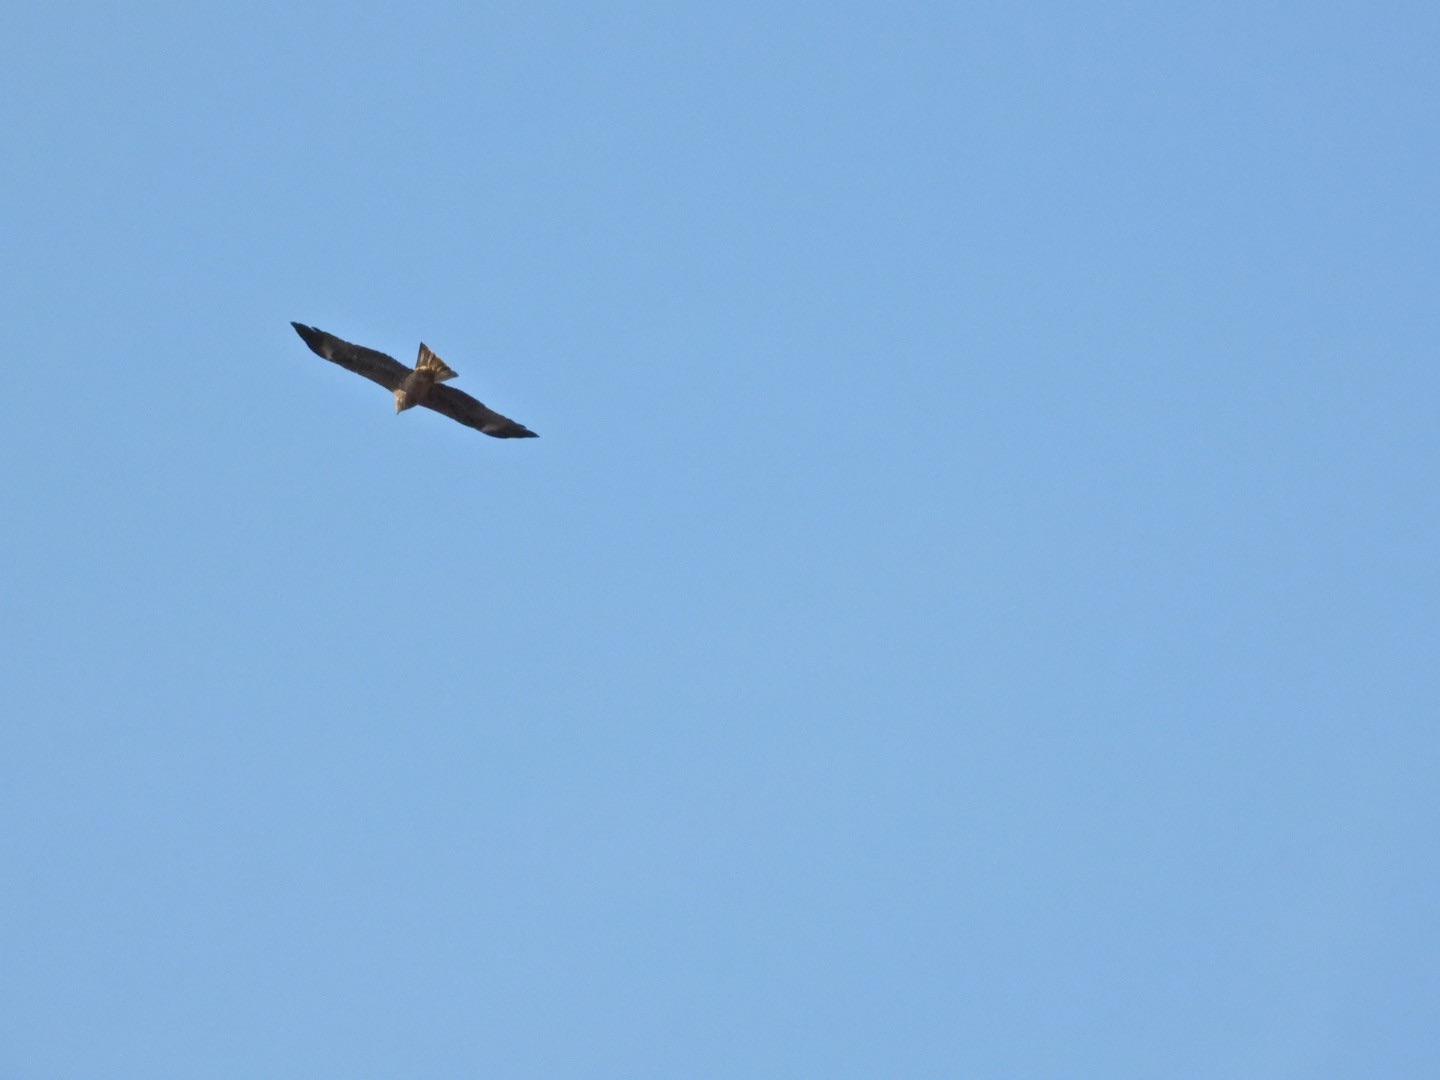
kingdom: Animalia
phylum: Chordata
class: Aves
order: Accipitriformes
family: Accipitridae
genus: Milvus
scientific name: Milvus migrans
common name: Sort glente
